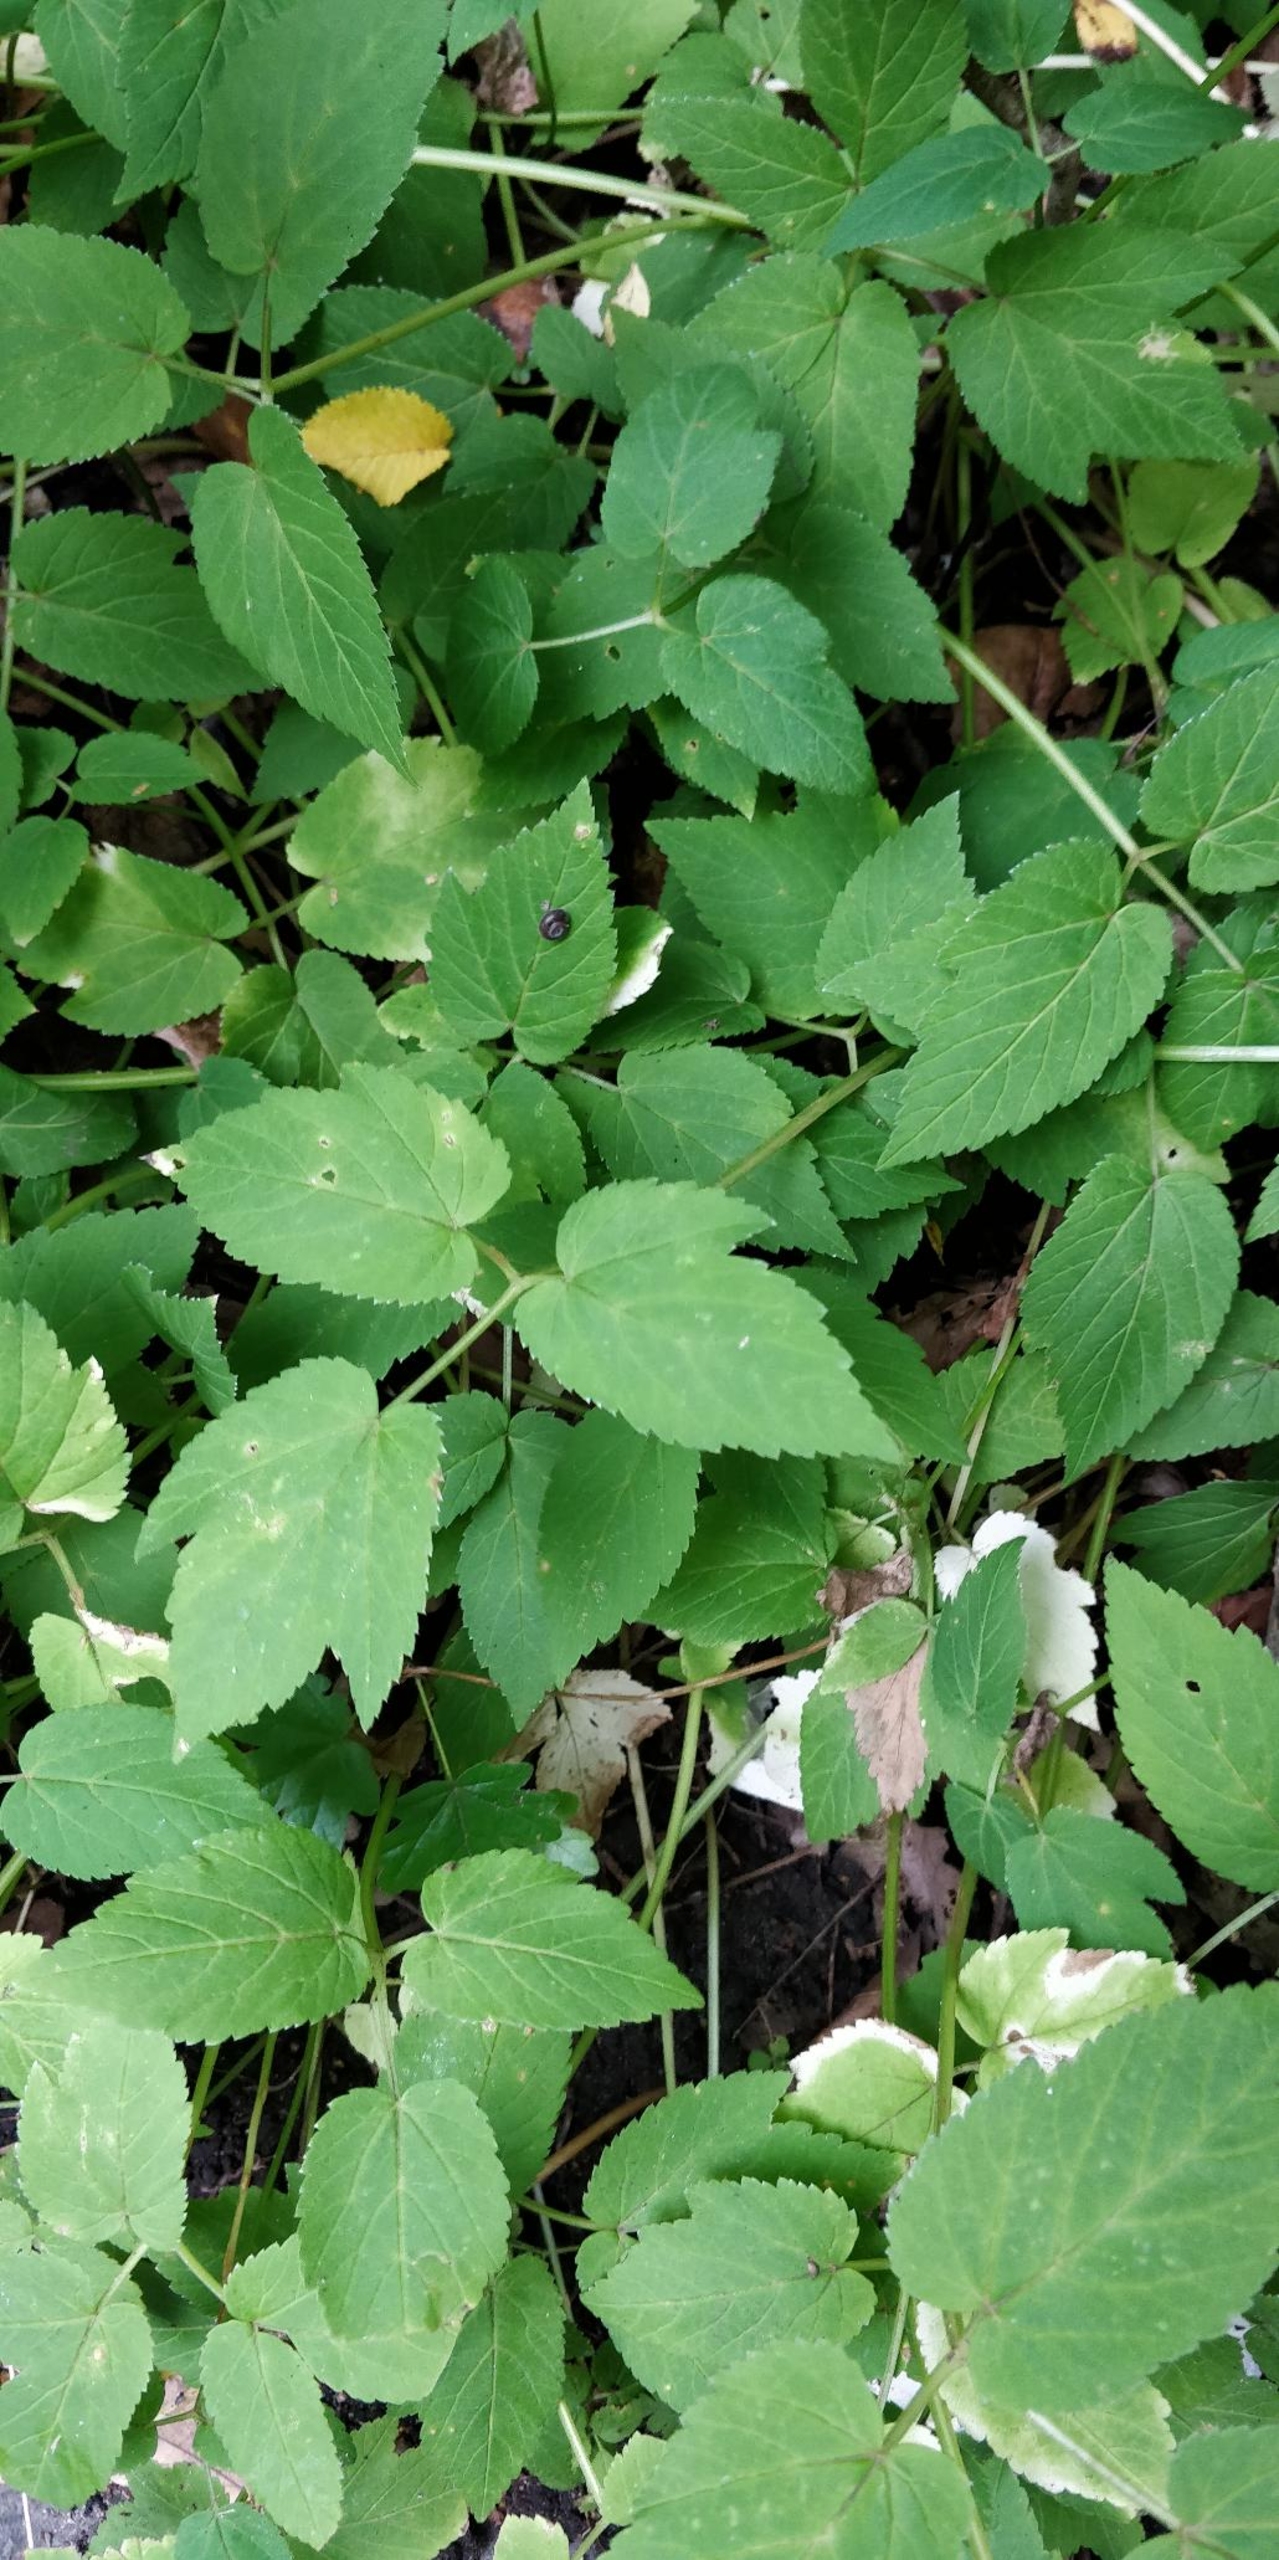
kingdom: Plantae
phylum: Tracheophyta
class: Magnoliopsida
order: Apiales
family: Apiaceae
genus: Aegopodium
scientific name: Aegopodium podagraria
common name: Skvalderkål
